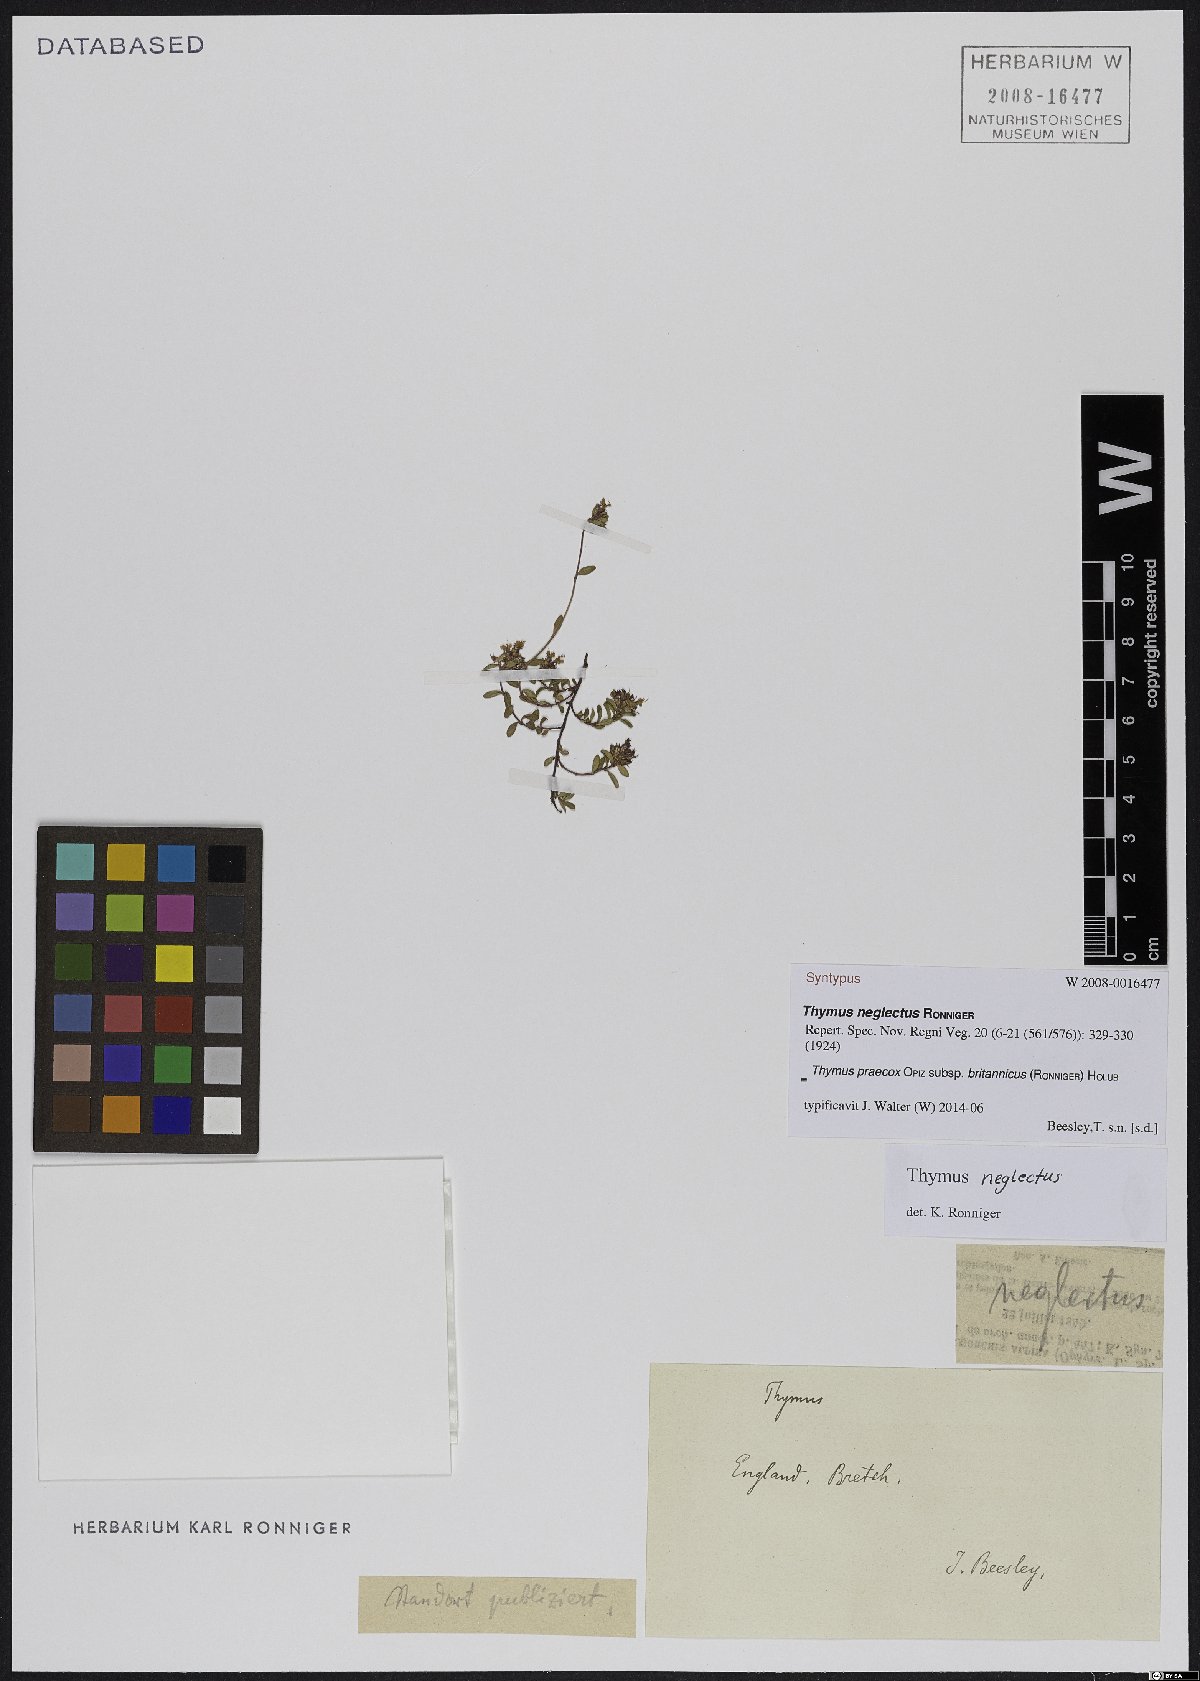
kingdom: Plantae
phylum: Tracheophyta
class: Magnoliopsida
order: Lamiales
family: Lamiaceae
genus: Thymus
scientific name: Thymus praecox
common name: Wild thyme
